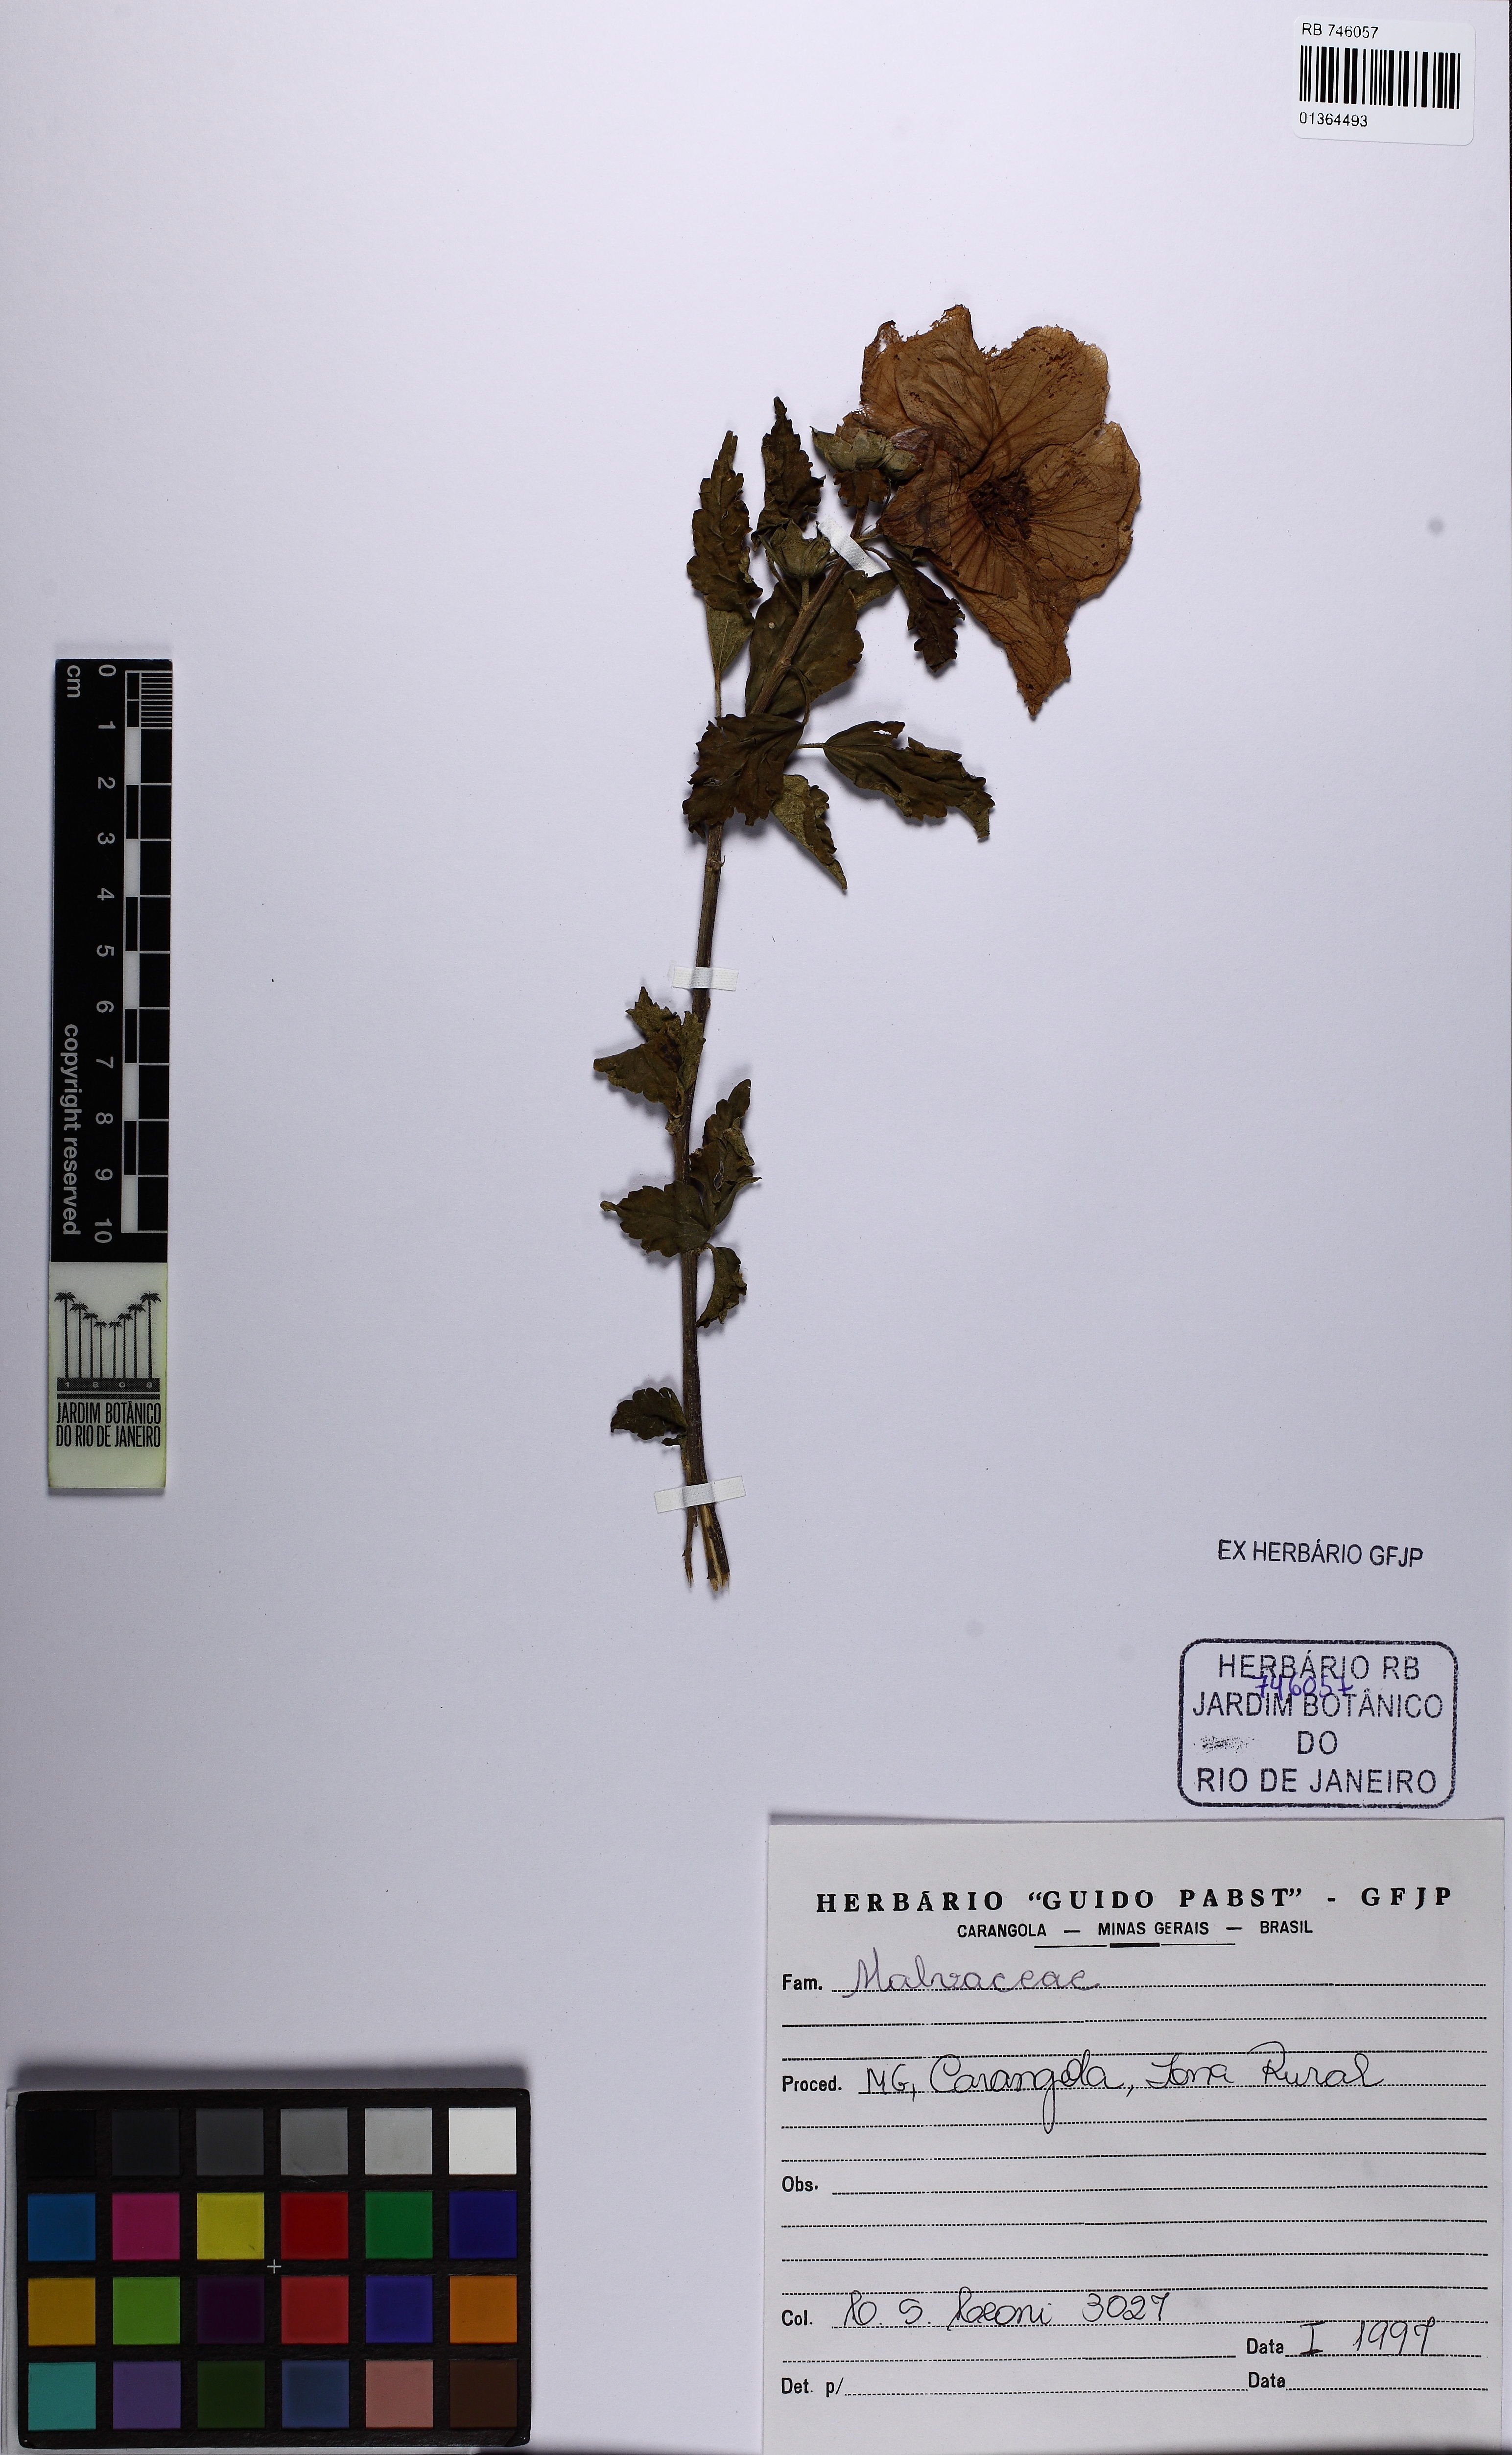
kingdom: Plantae
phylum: Tracheophyta
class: Magnoliopsida
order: Malvales
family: Malvaceae
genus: Hibiscus
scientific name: Hibiscus rosa-sinensis
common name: Hibiscus
